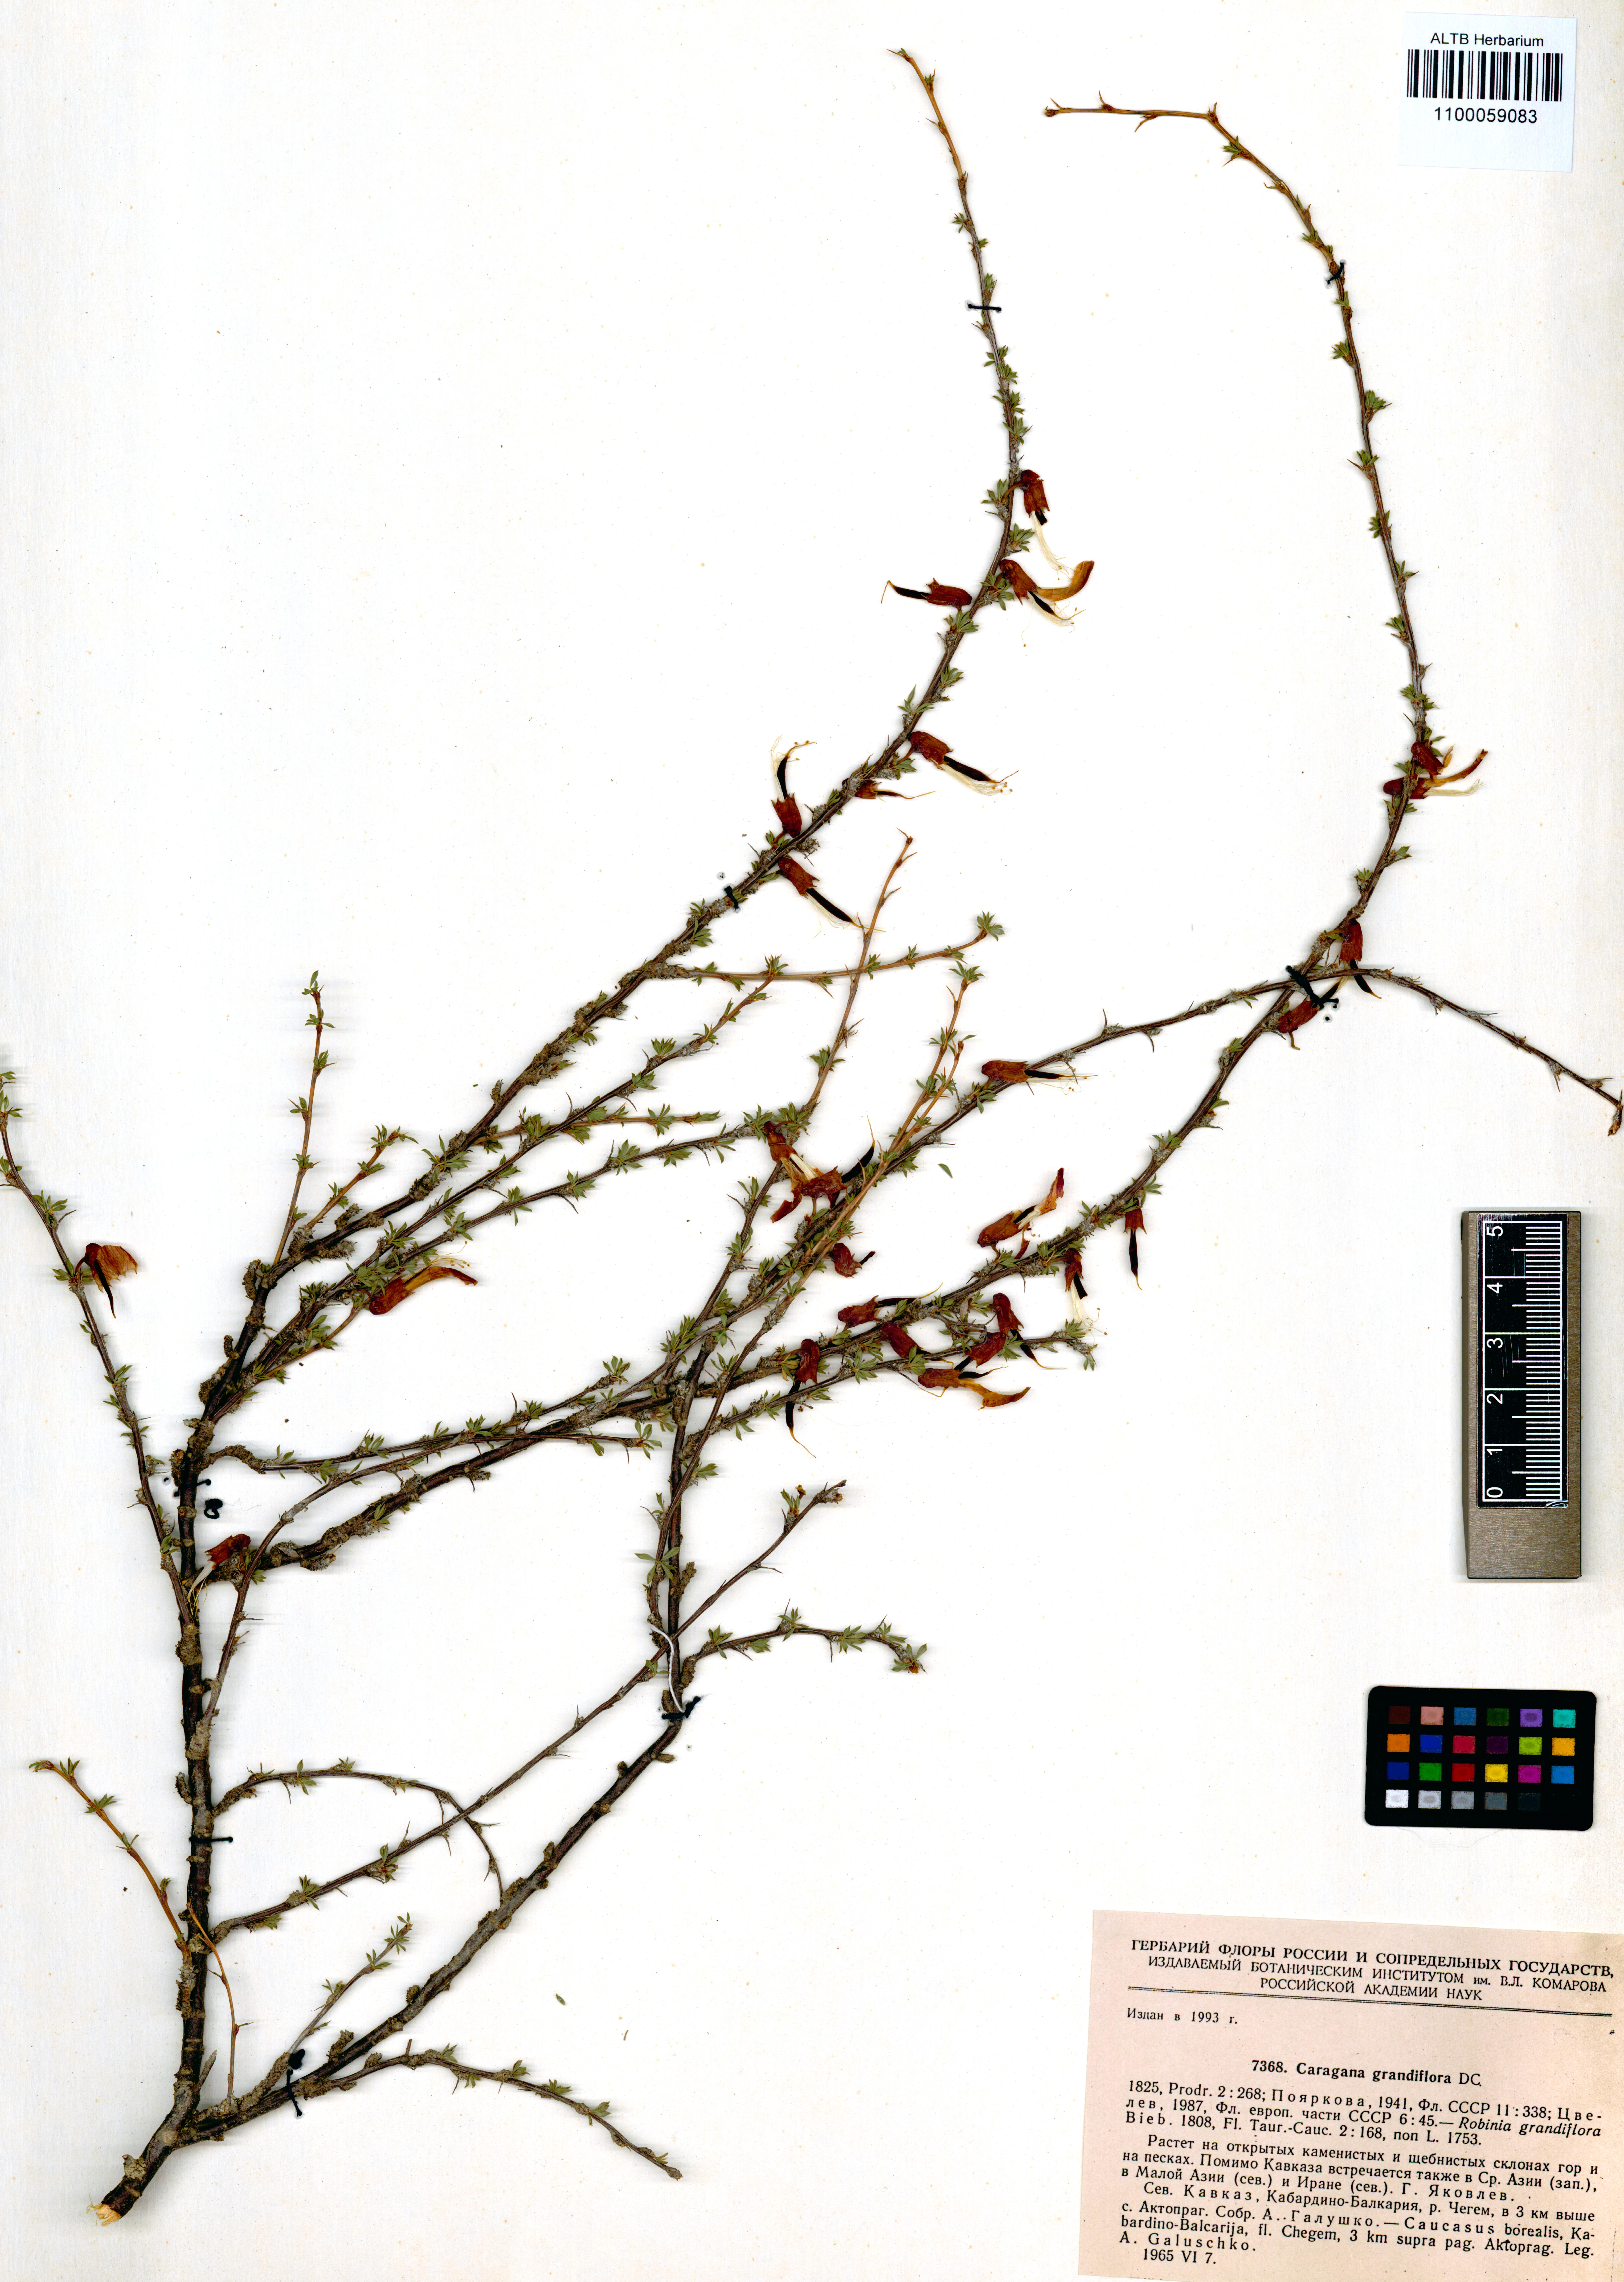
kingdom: Plantae
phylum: Tracheophyta
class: Magnoliopsida
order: Fabales
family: Fabaceae
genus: Caragana
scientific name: Caragana grandiflora
